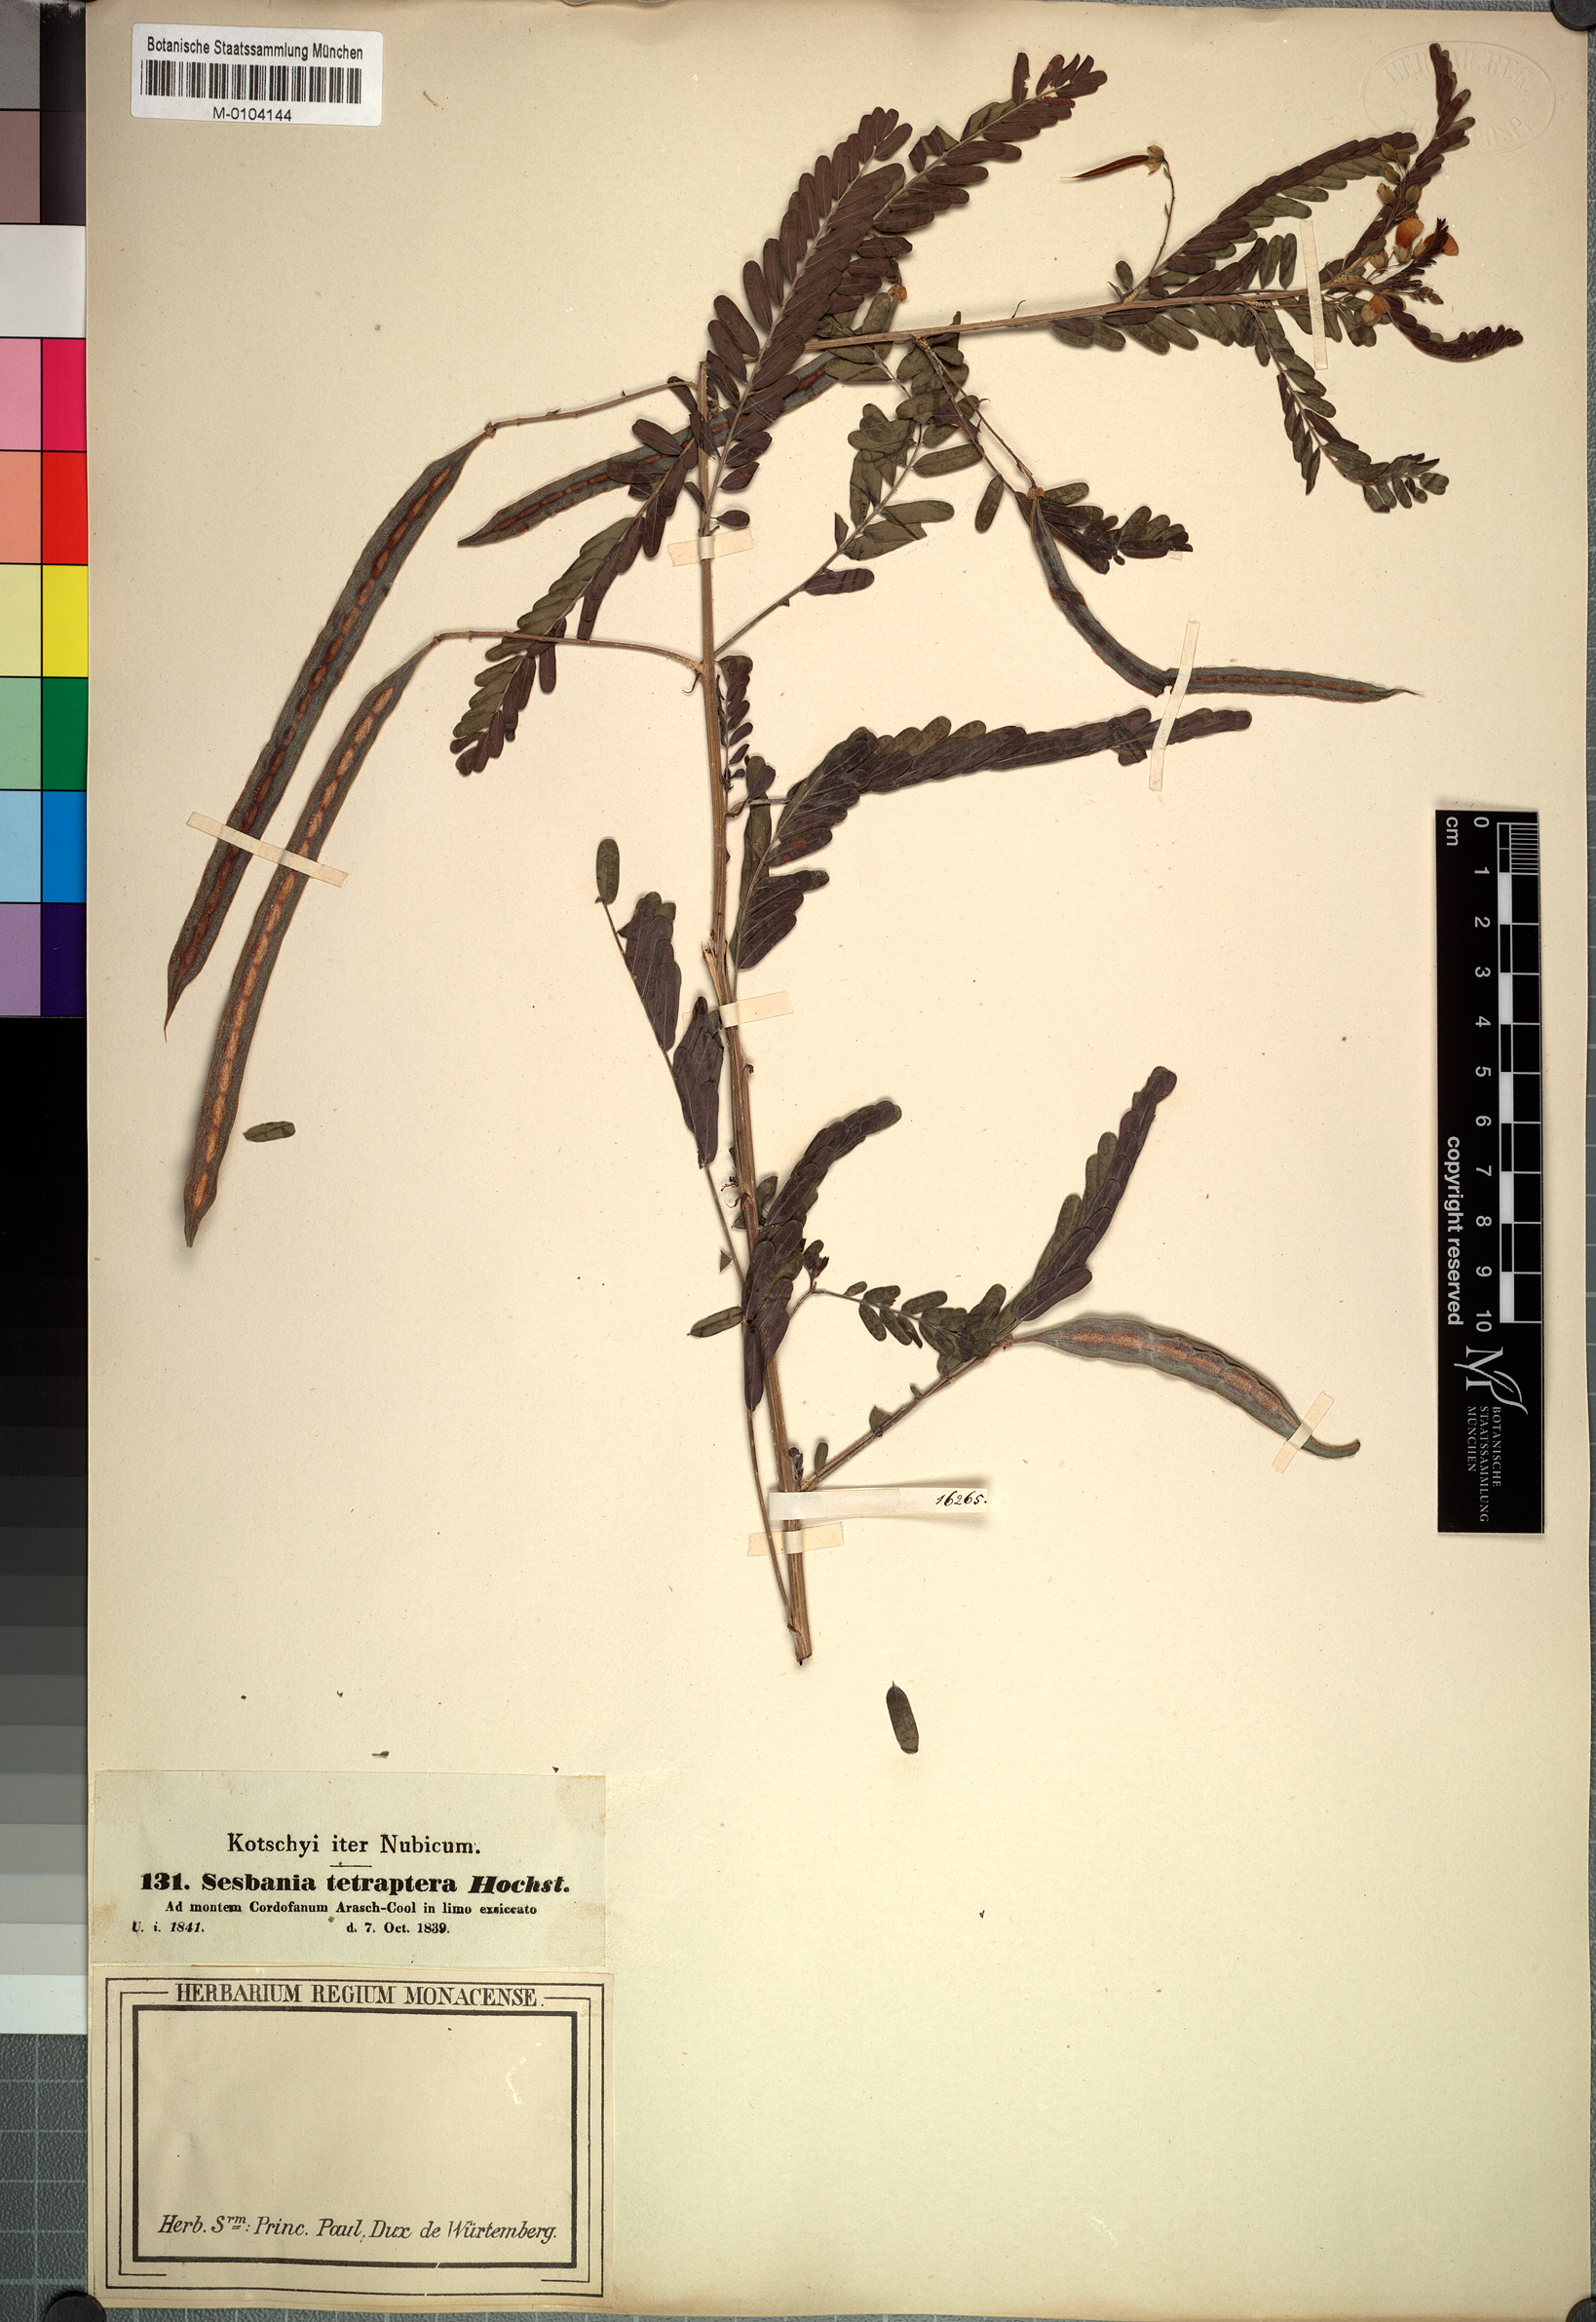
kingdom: Plantae
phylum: Tracheophyta
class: Magnoliopsida
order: Fabales
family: Fabaceae
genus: Sesbania
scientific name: Sesbania tetraptera
